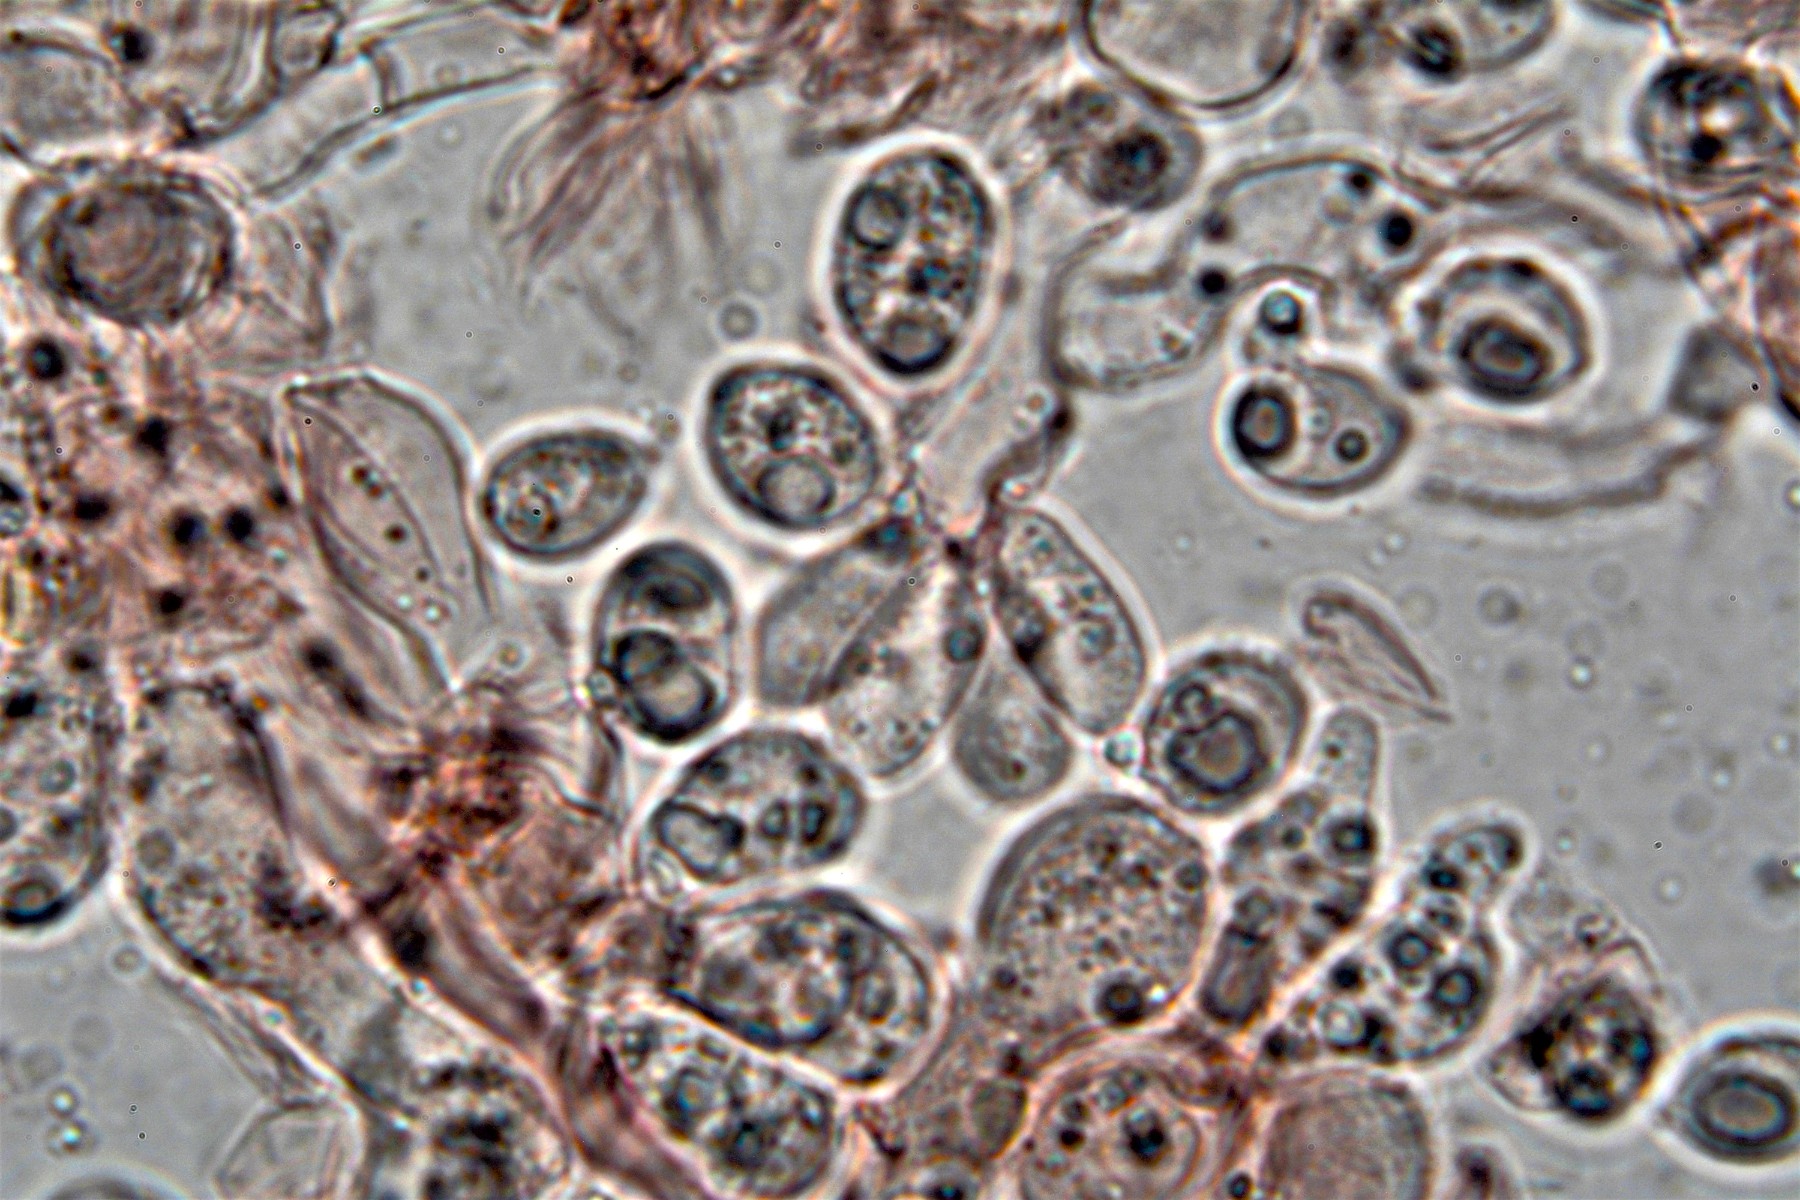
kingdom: Fungi
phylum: Basidiomycota
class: Agaricomycetes
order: Cantharellales
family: Tulasnellaceae
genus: Tulasnella
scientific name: Tulasnella violea
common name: violet ballonhinde
